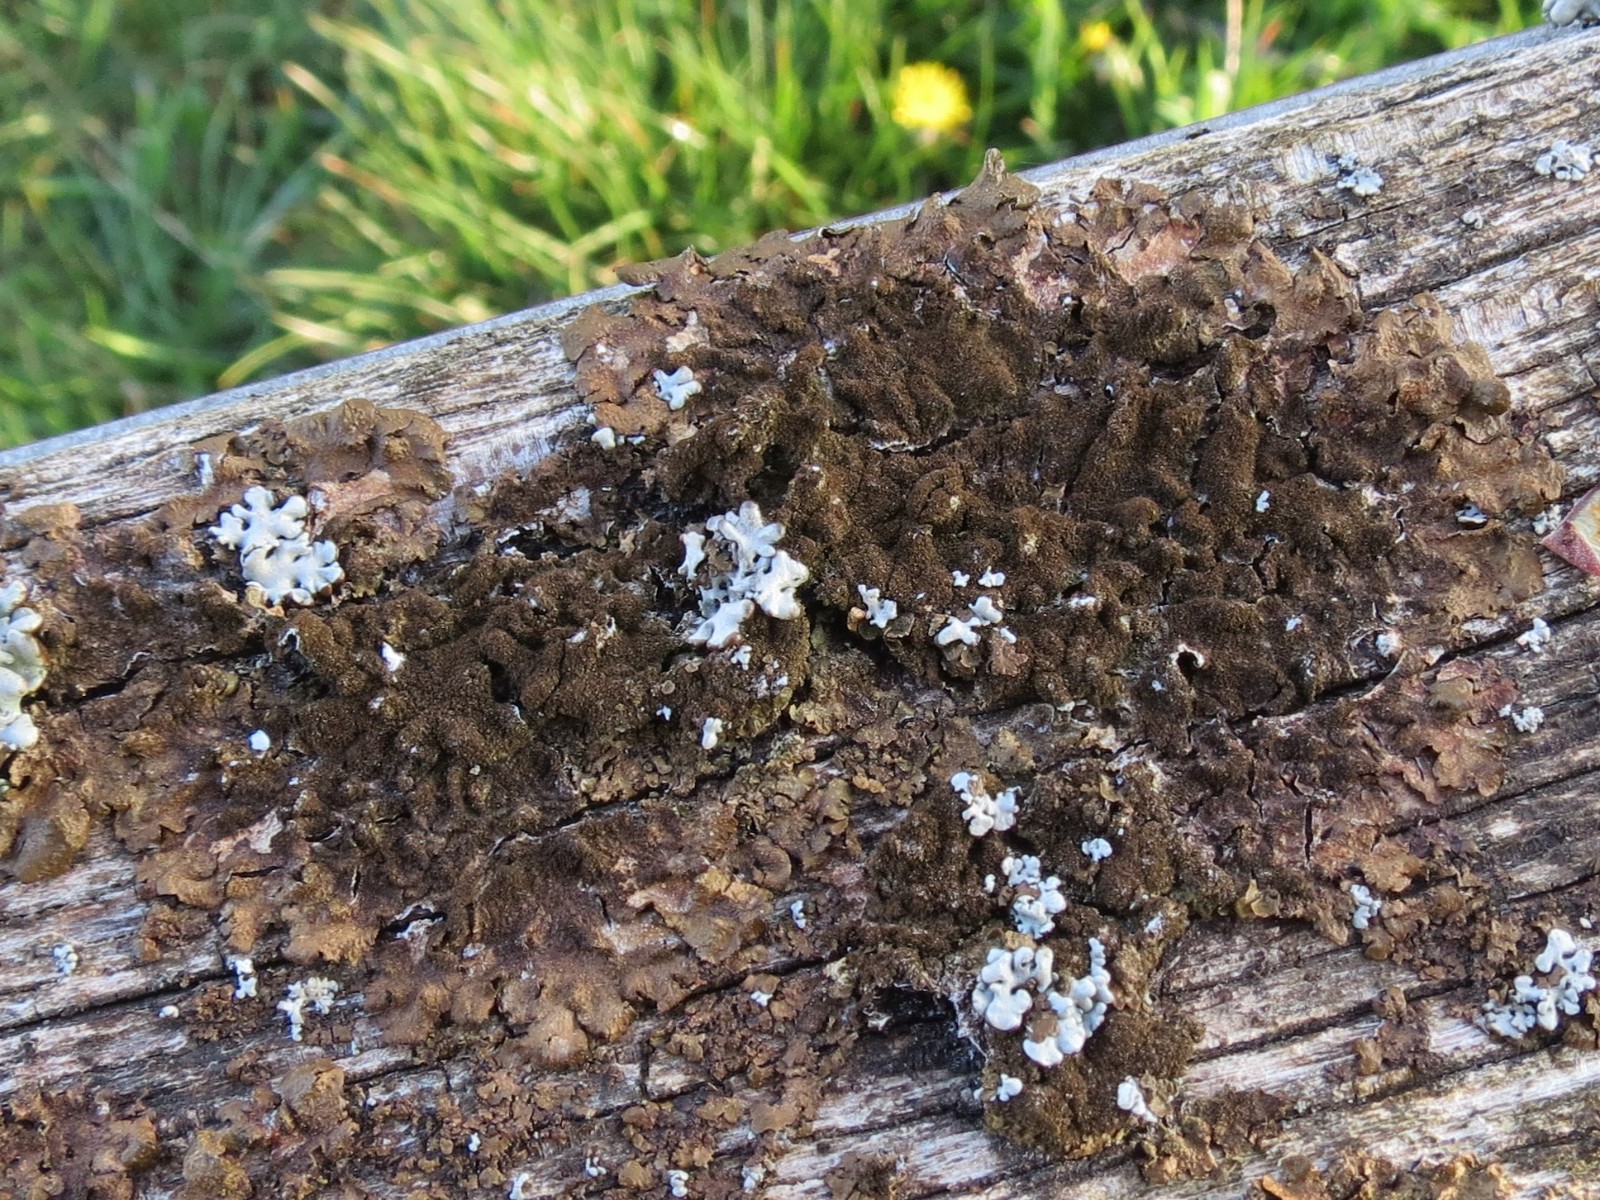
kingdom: Fungi
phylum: Ascomycota
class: Lecanoromycetes
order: Lecanorales
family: Parmeliaceae
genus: Melanelixia
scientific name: Melanelixia subaurifera
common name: guldpudret skållav
